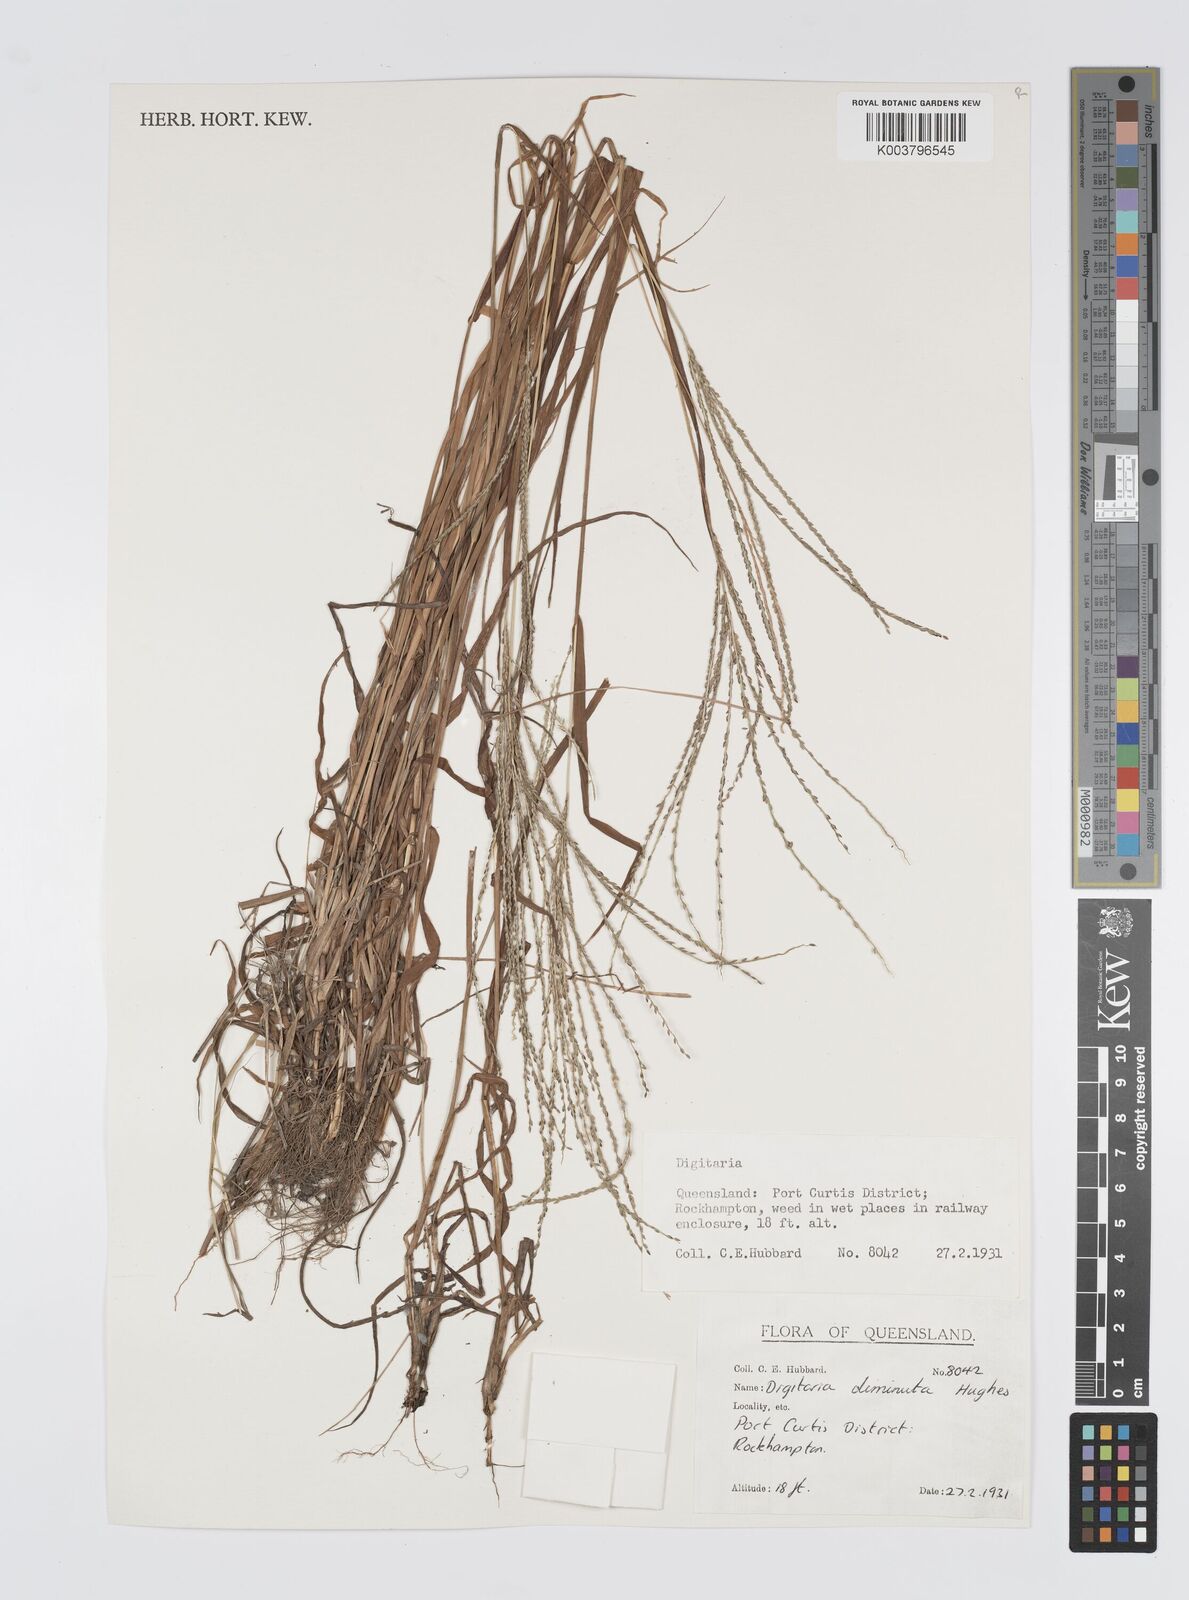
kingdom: Plantae
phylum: Tracheophyta
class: Liliopsida
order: Poales
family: Poaceae
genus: Digitaria
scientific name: Digitaria breviglumis
